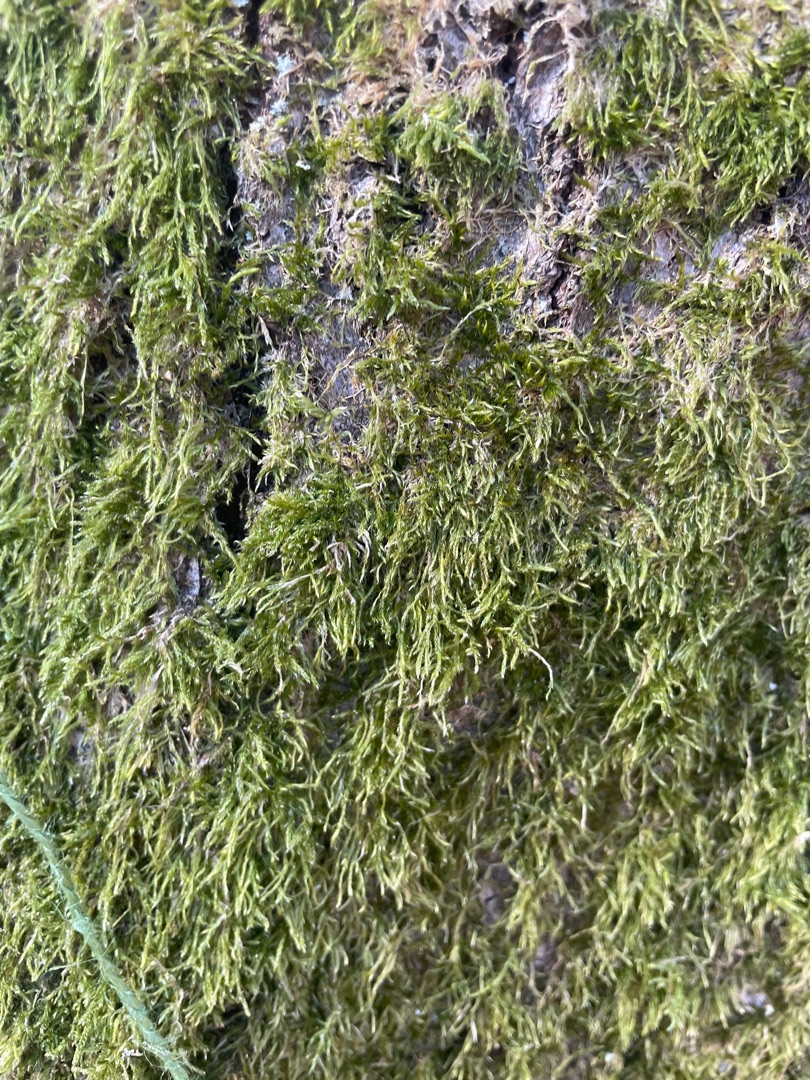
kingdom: Plantae
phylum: Bryophyta
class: Bryopsida
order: Hypnales
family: Hypnaceae
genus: Hypnum
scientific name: Hypnum
